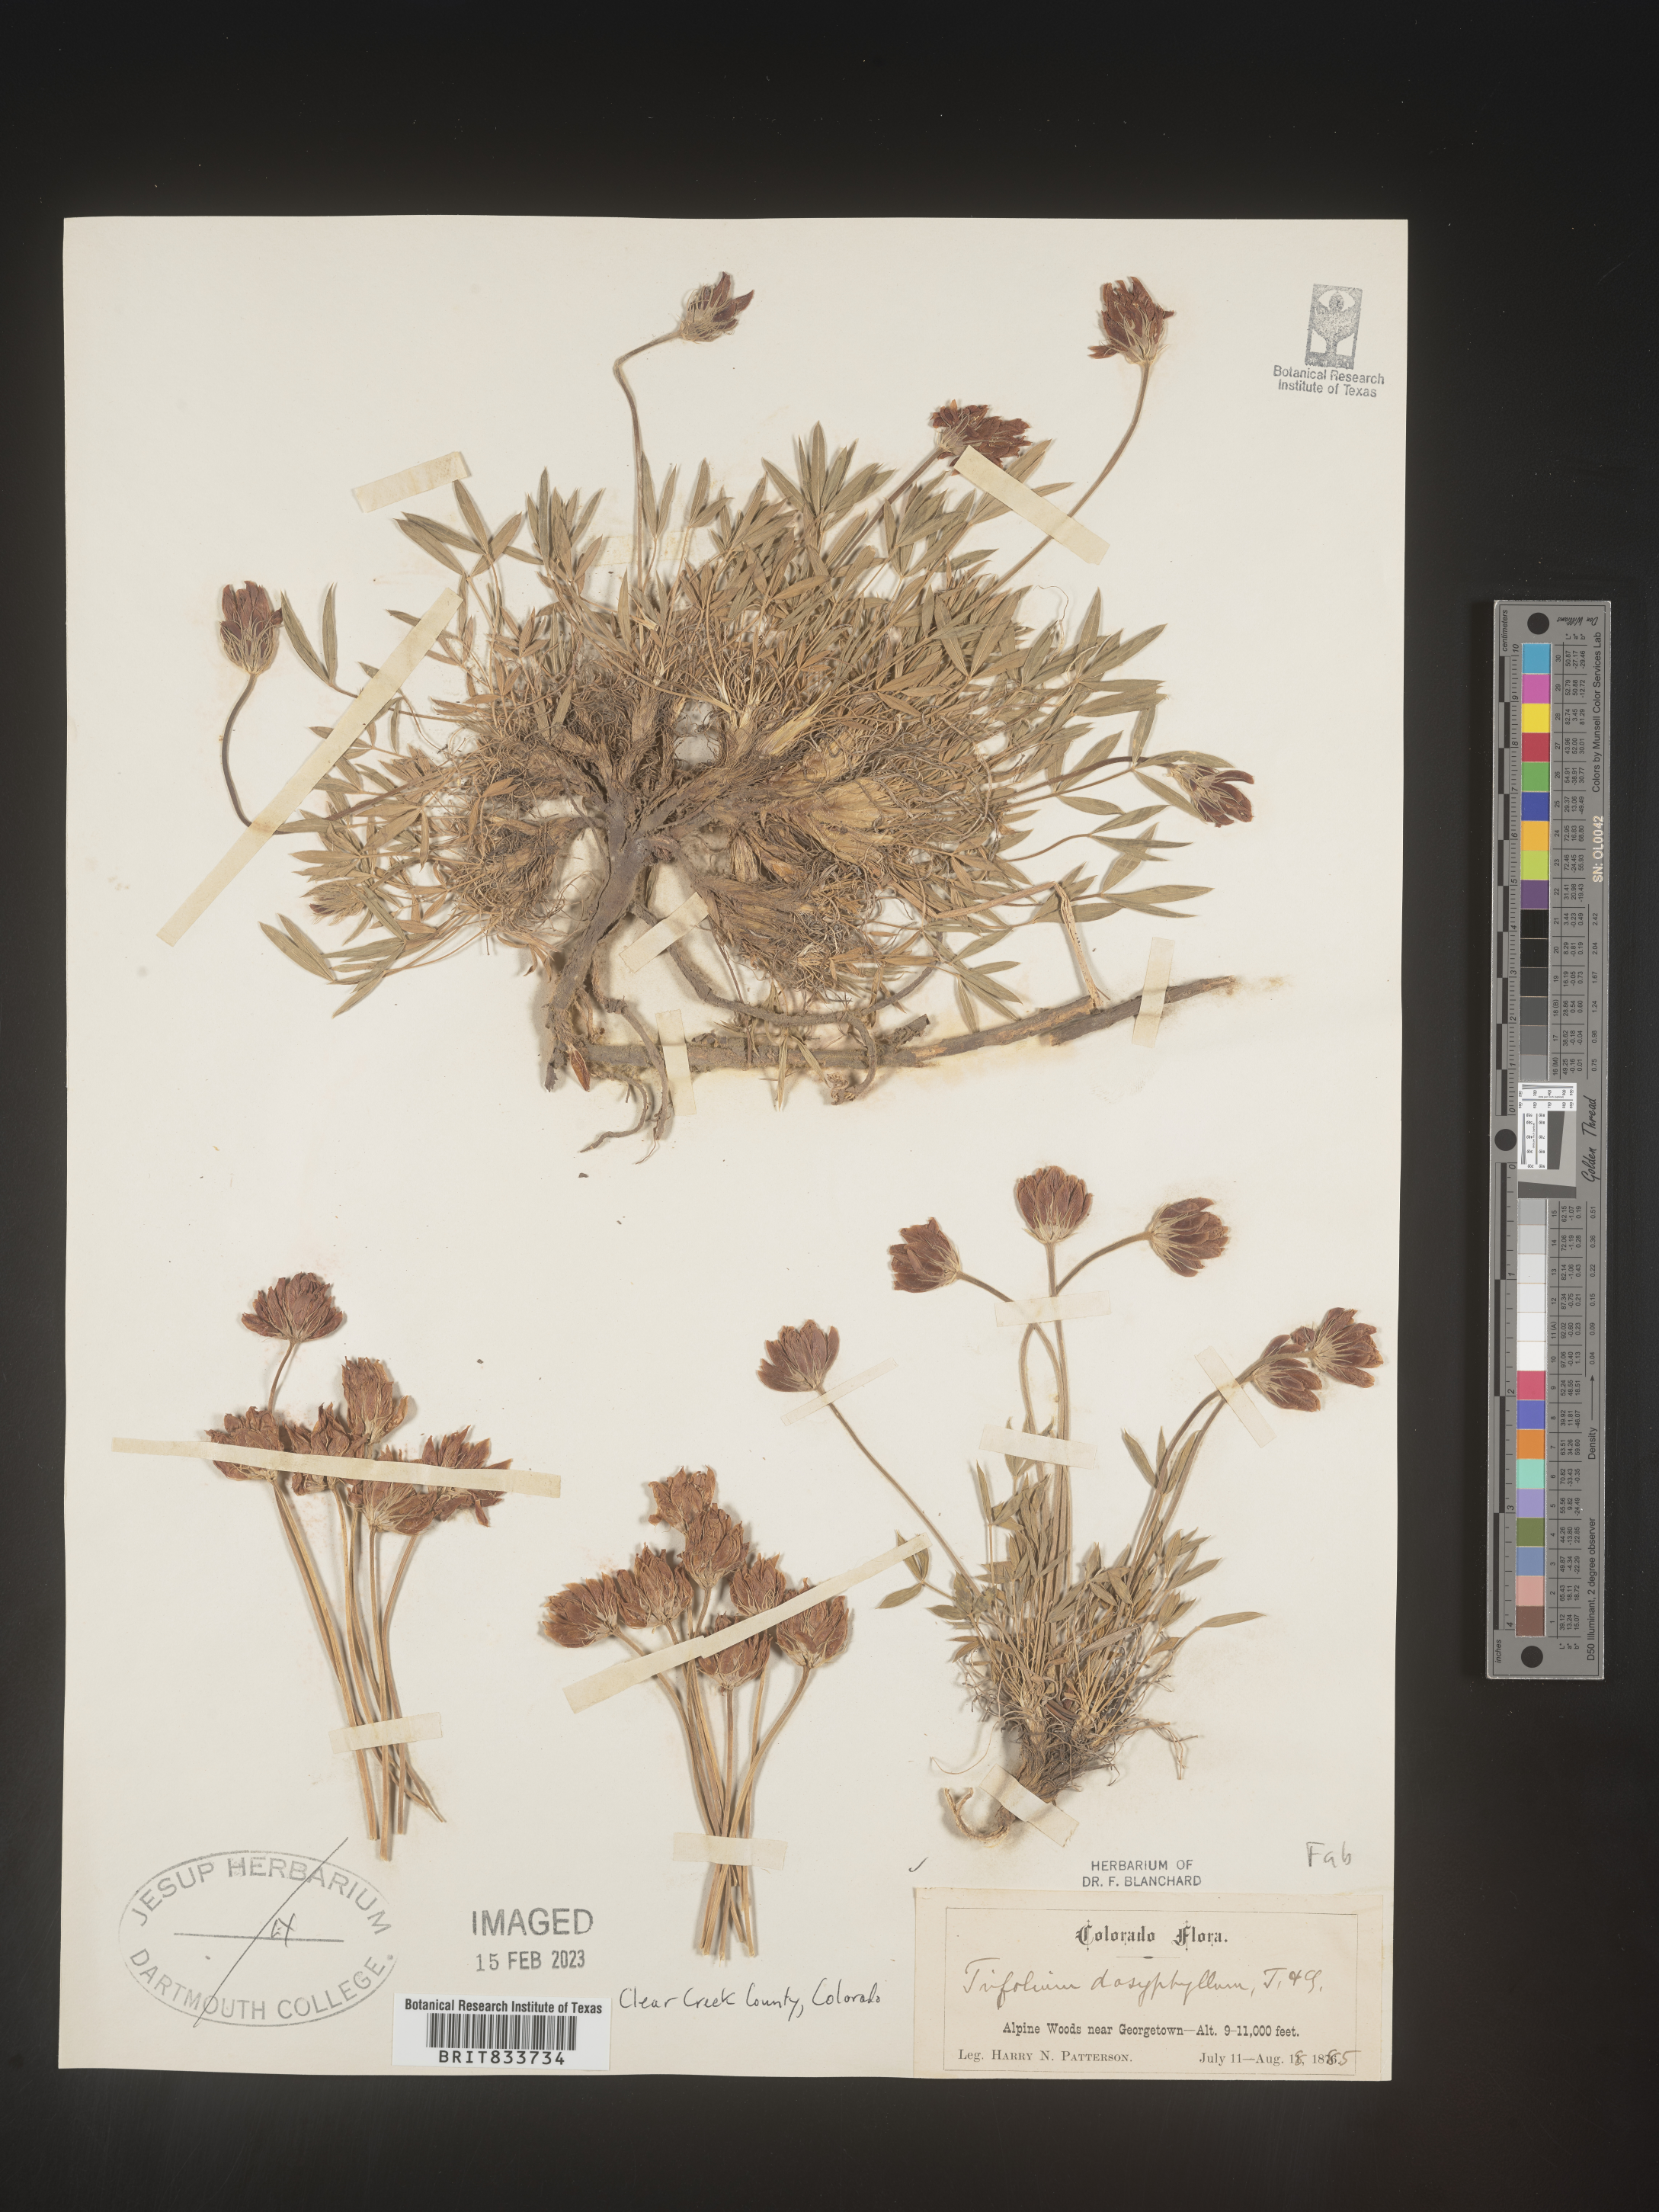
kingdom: Plantae
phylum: Tracheophyta
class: Magnoliopsida
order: Fabales
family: Fabaceae
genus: Trifolium
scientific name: Trifolium
